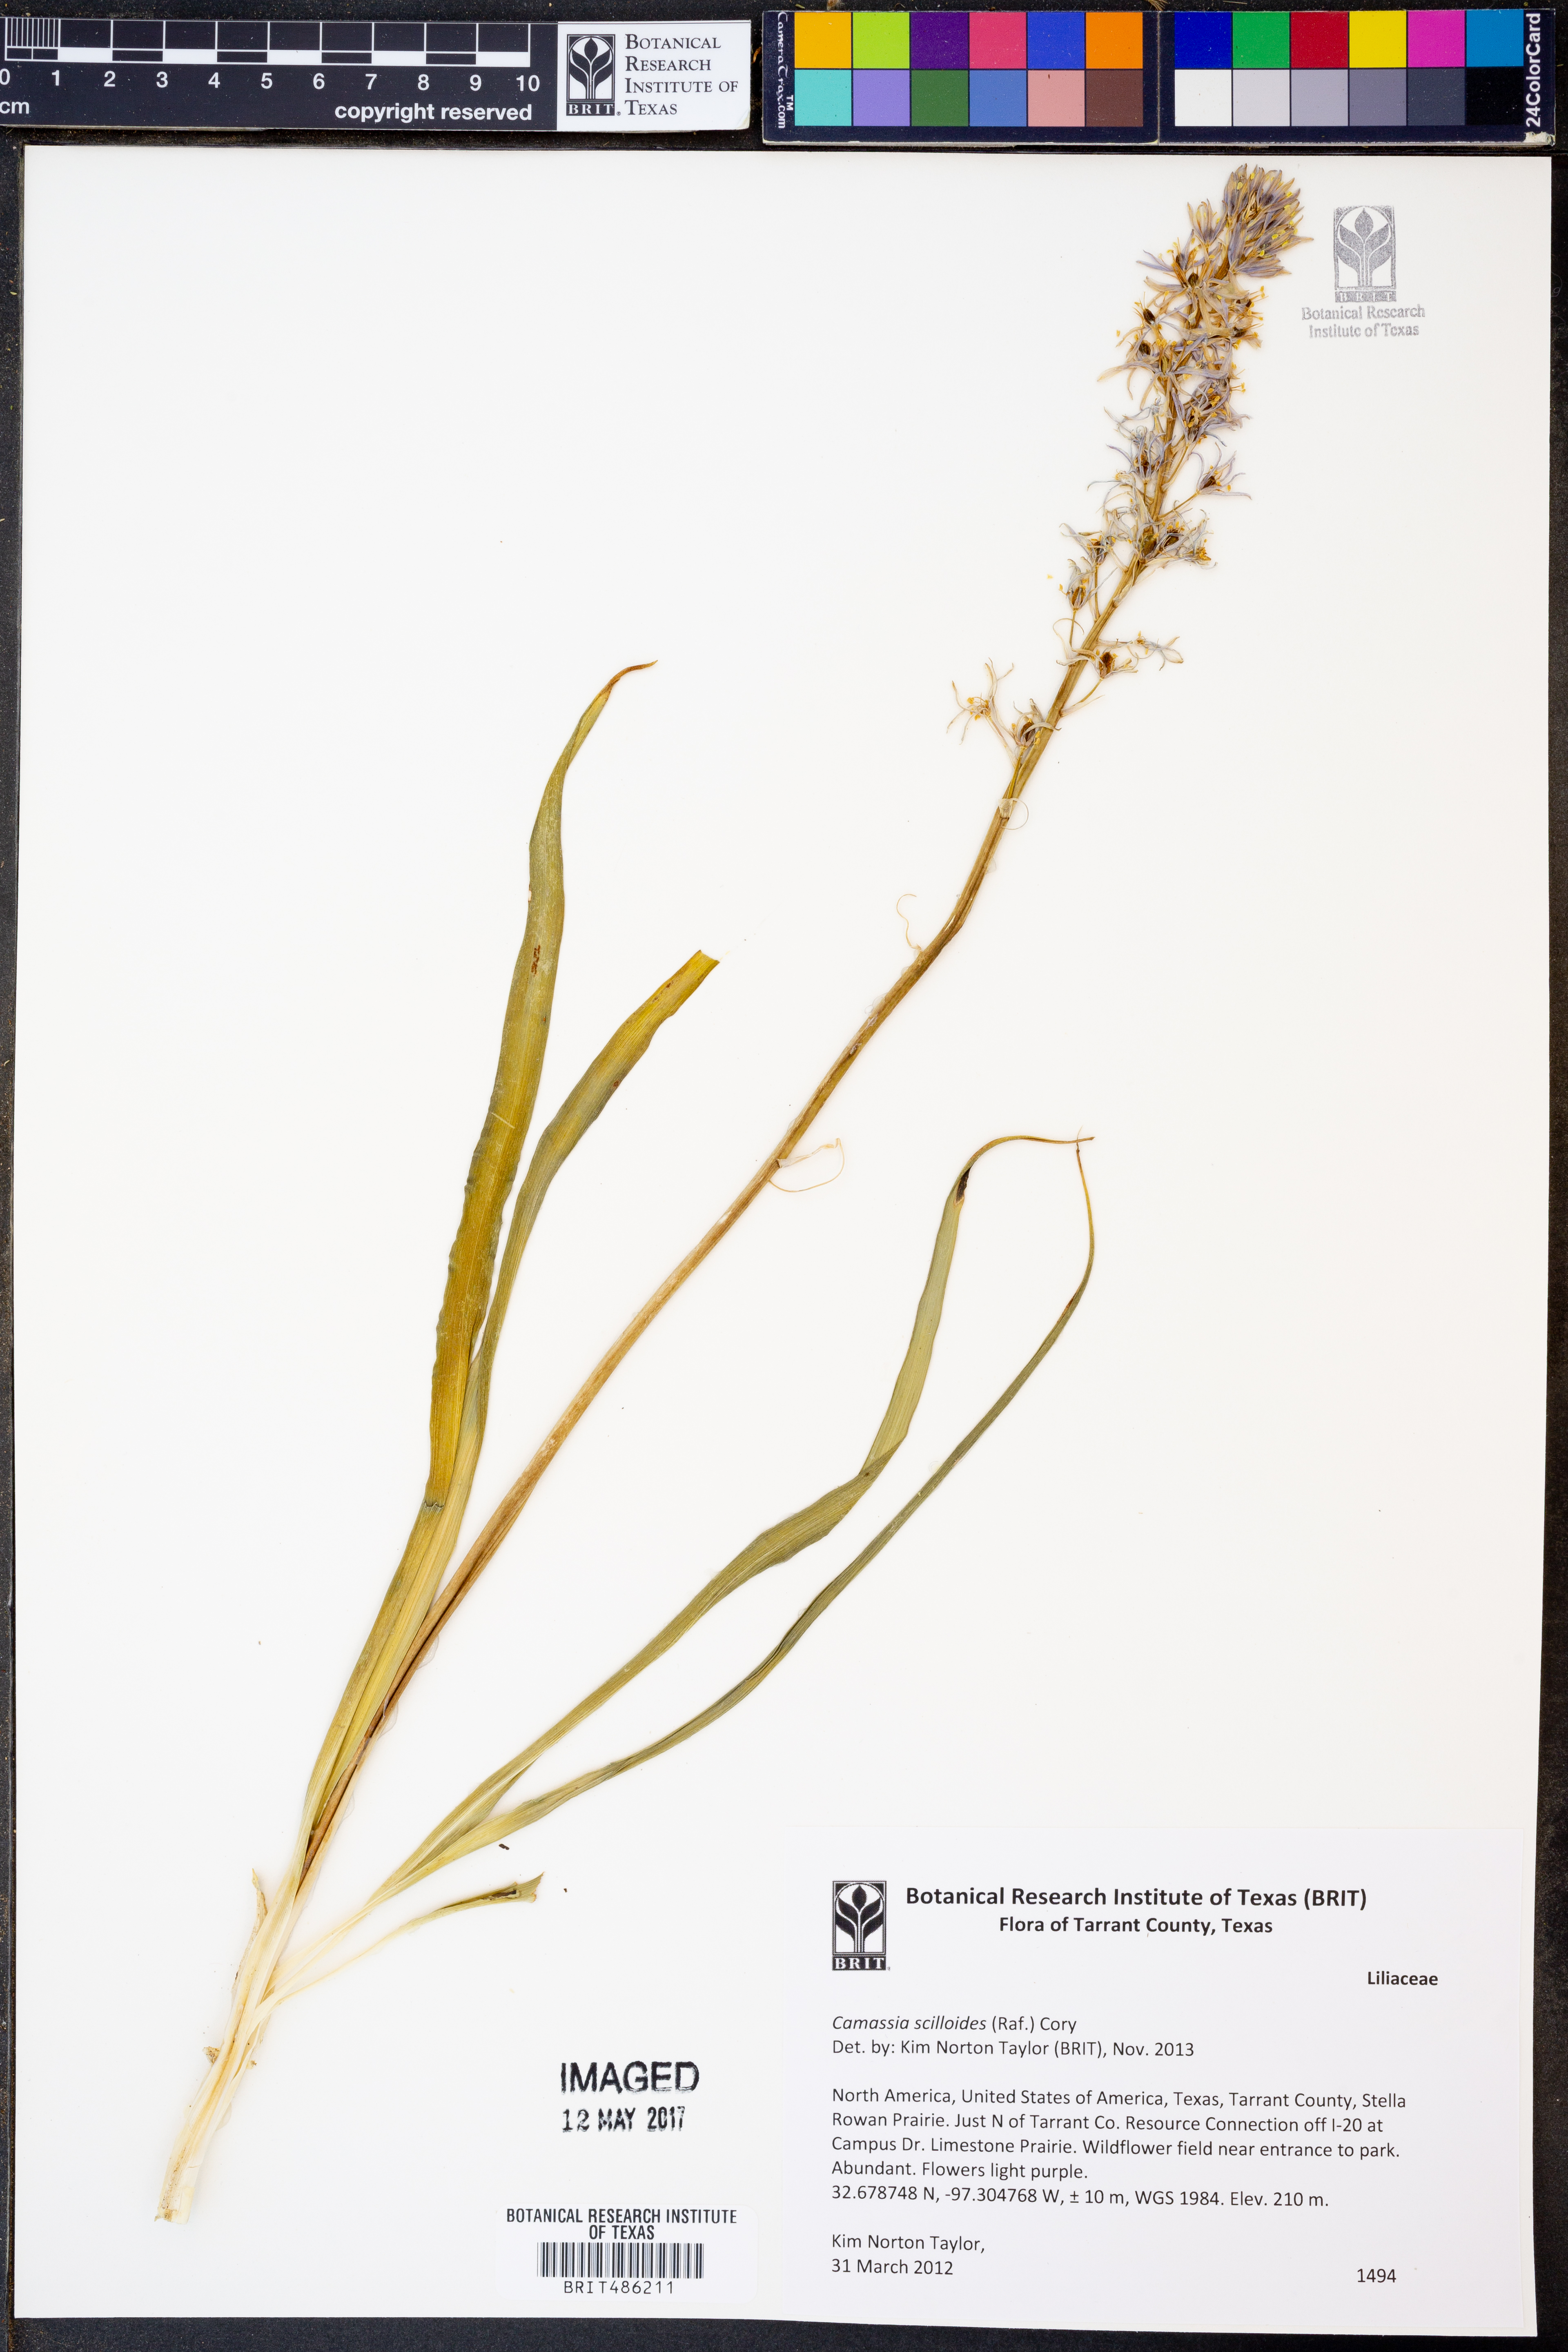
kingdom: Plantae
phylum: Tracheophyta
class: Liliopsida
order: Asparagales
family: Asparagaceae
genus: Camassia
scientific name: Camassia scilloides
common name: Wild hyacinth
